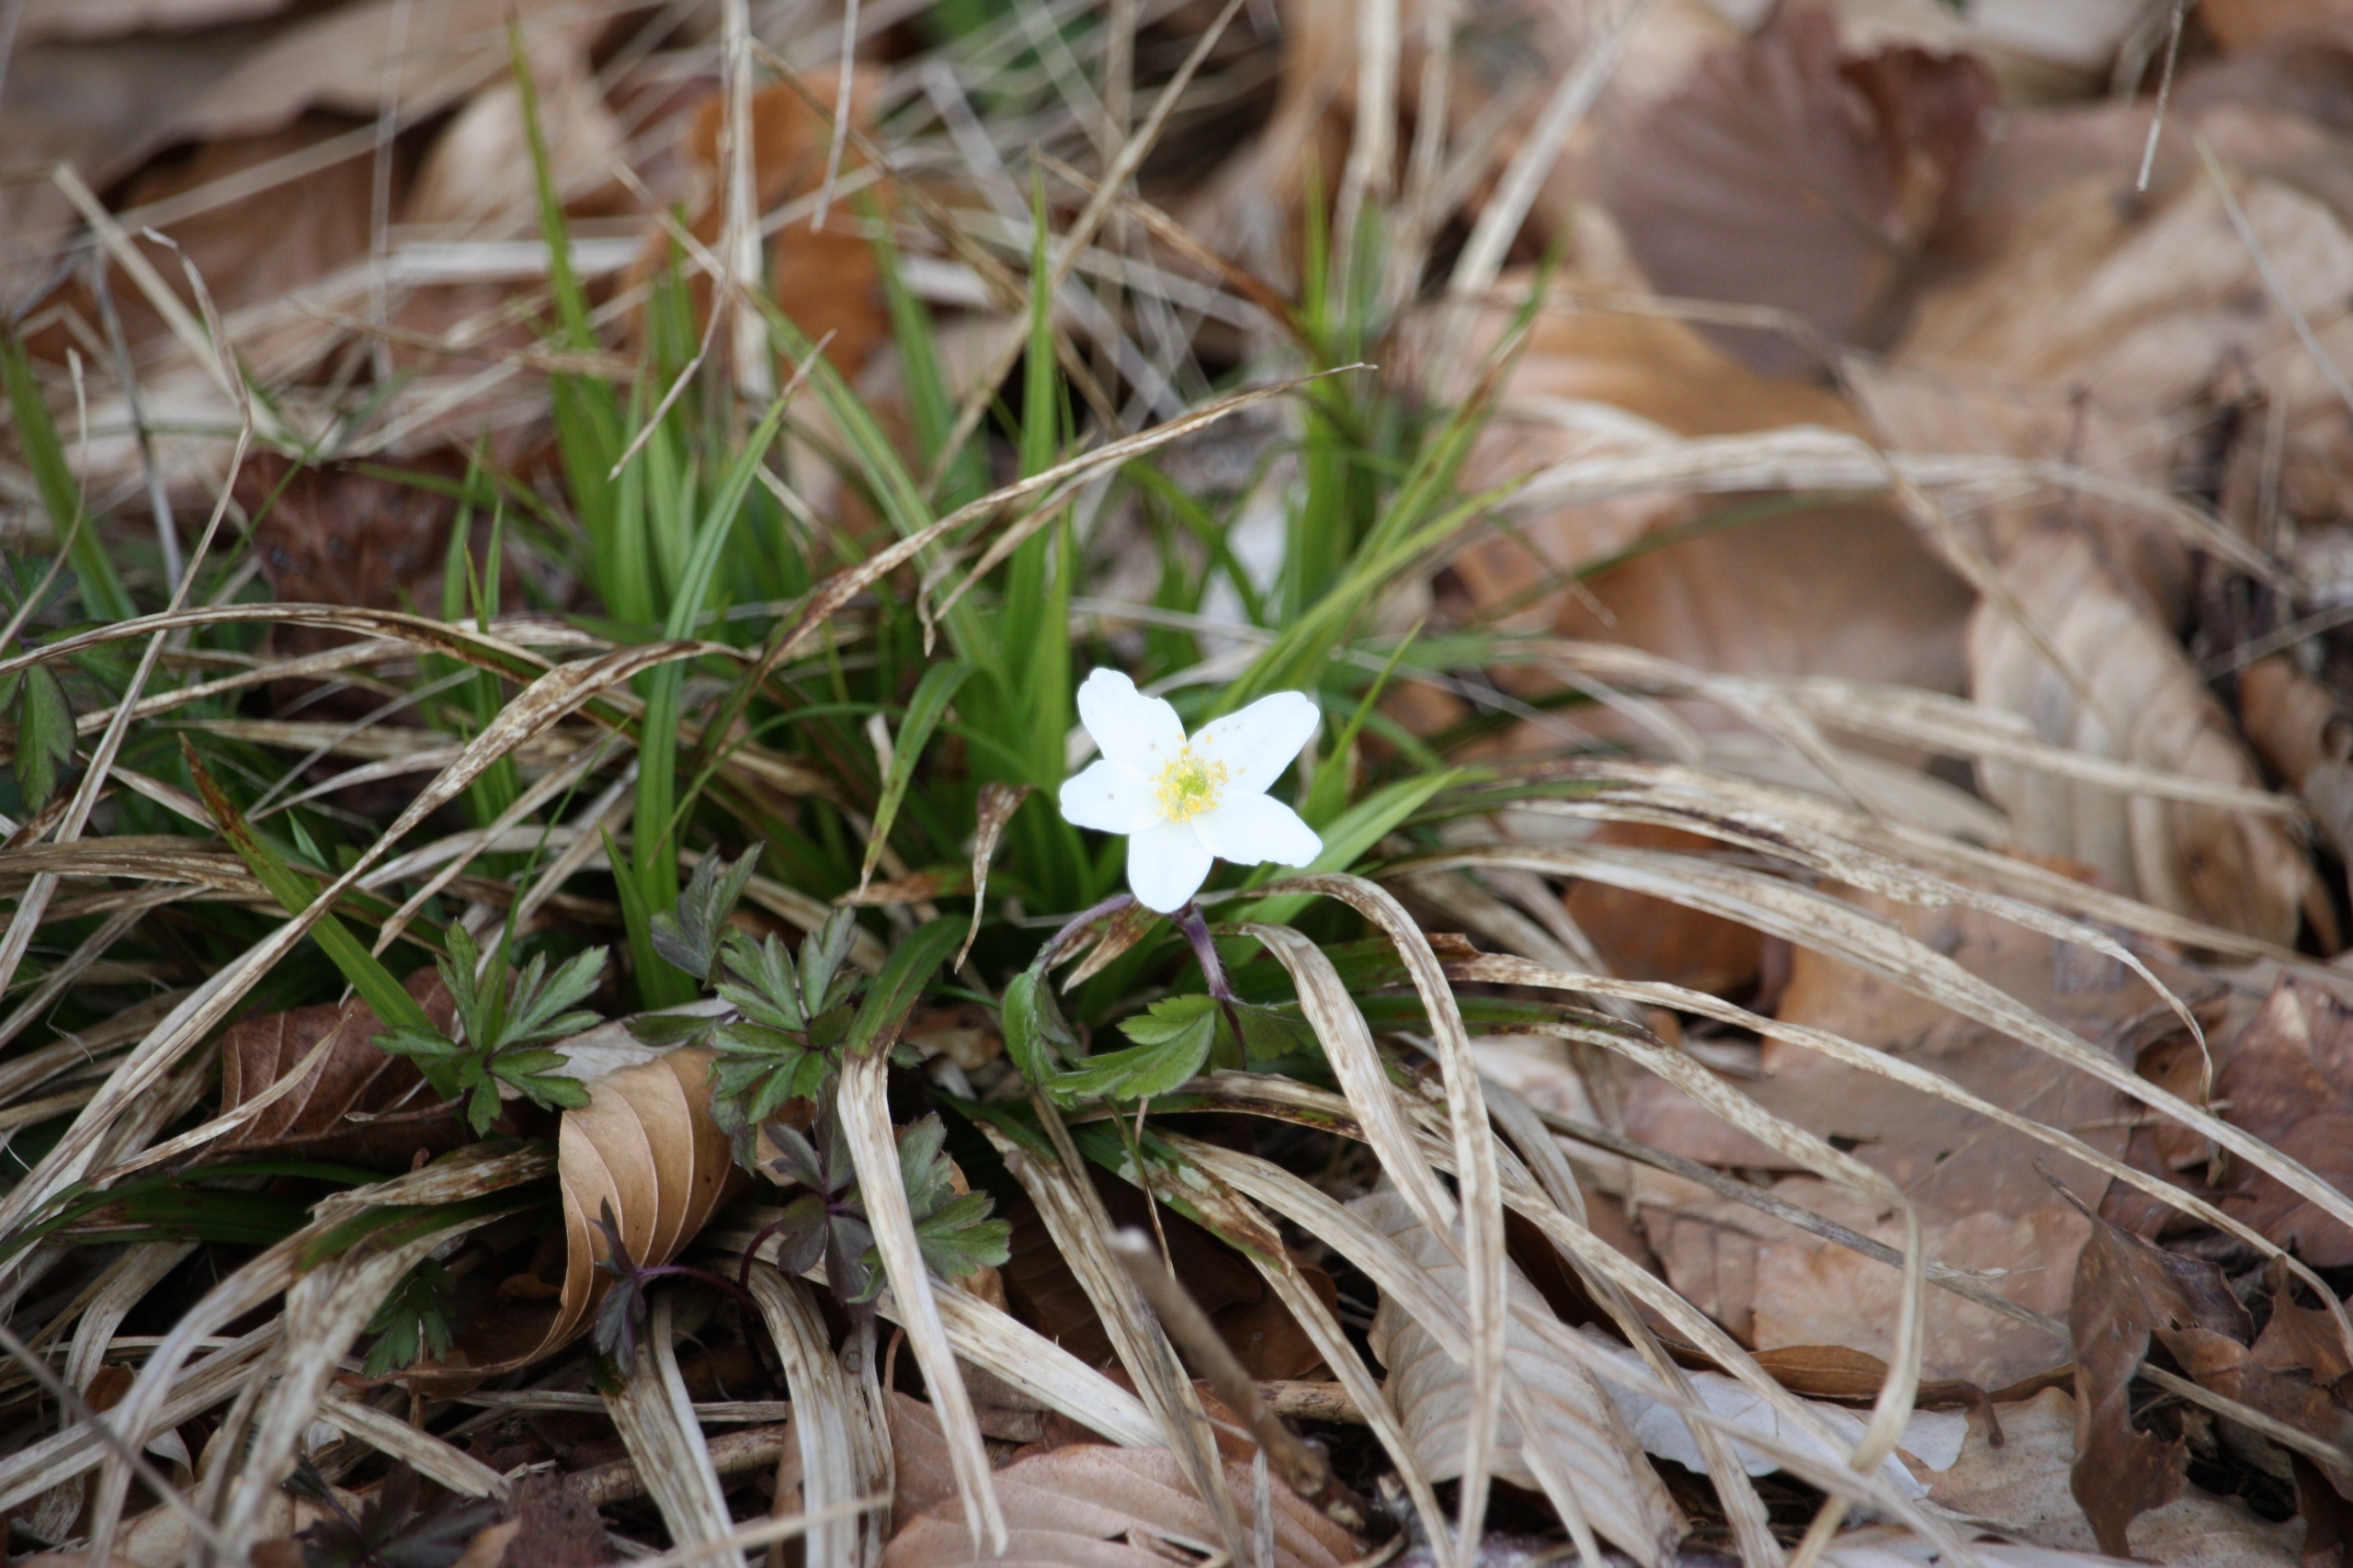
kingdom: Plantae
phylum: Tracheophyta
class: Magnoliopsida
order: Ranunculales
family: Ranunculaceae
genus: Anemone
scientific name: Anemone nemorosa
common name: Hvid anemone
